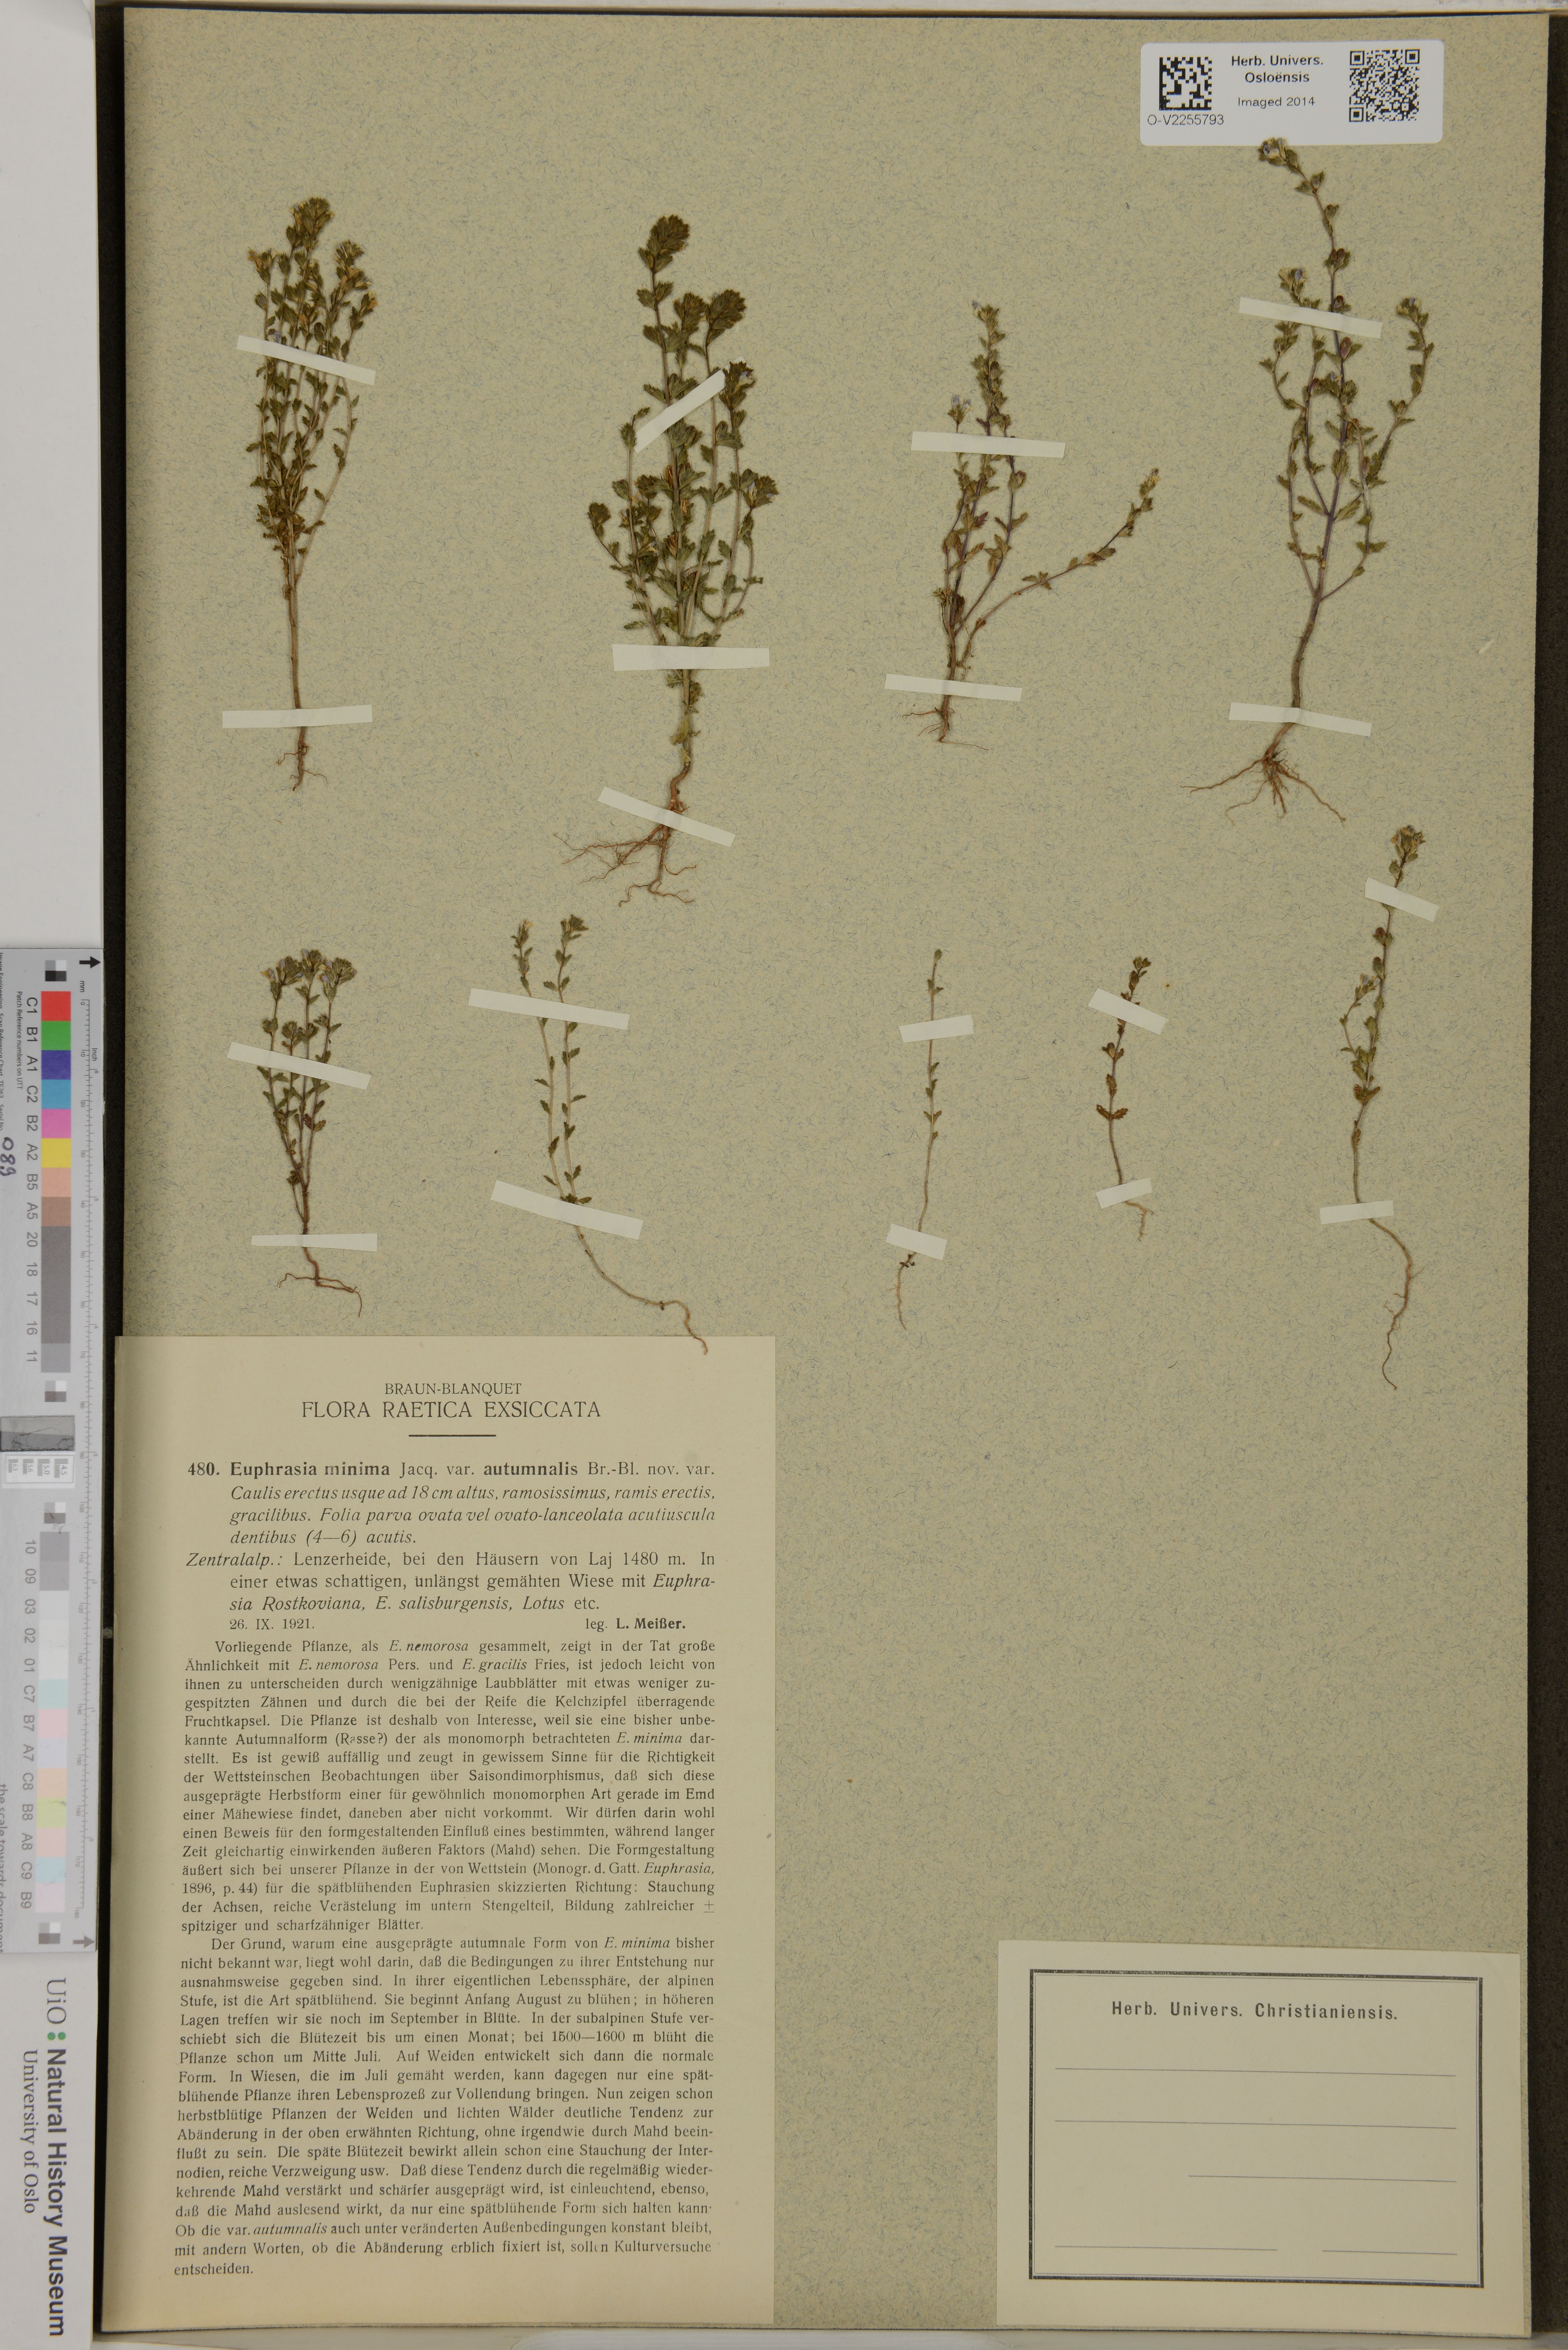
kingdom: Plantae
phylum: Tracheophyta
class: Magnoliopsida
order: Lamiales
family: Orobanchaceae
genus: Euphrasia
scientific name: Euphrasia minima
